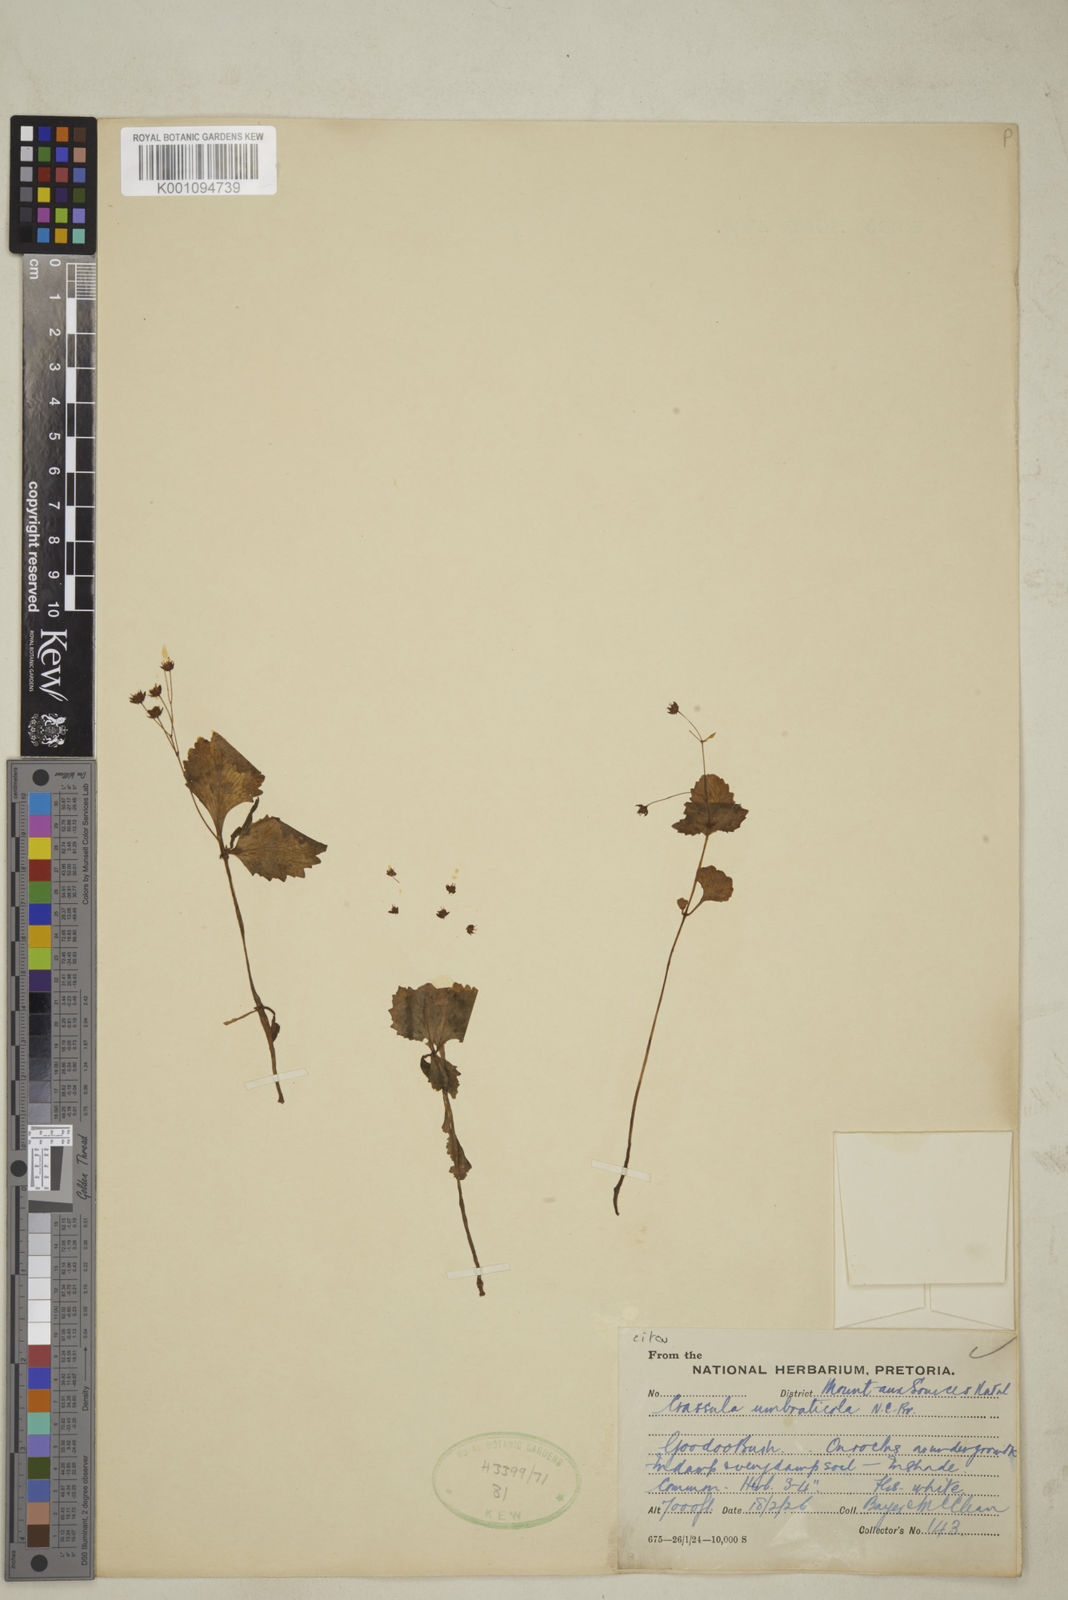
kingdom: Plantae
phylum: Tracheophyta
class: Magnoliopsida
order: Saxifragales
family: Crassulaceae
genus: Crassula
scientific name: Crassula umbraticola
